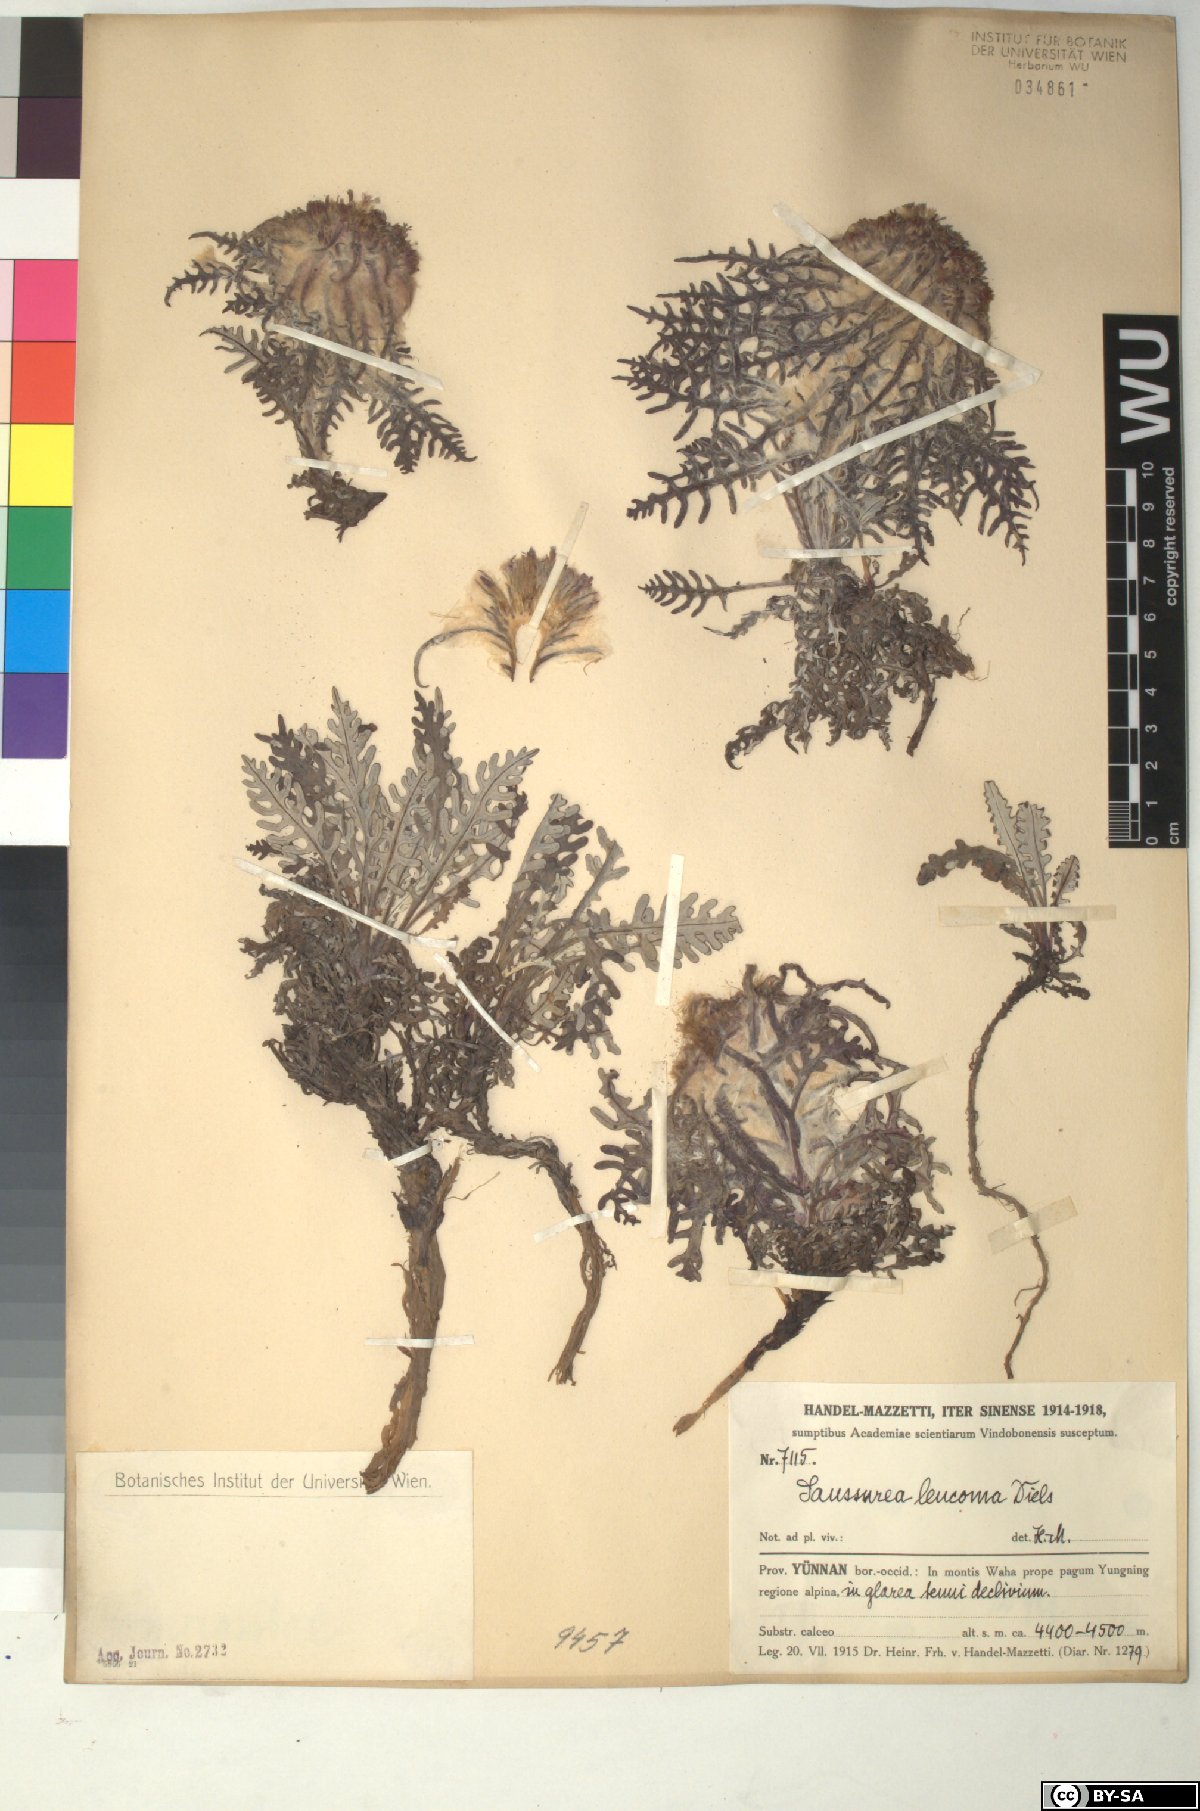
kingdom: Plantae
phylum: Tracheophyta
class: Magnoliopsida
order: Asterales
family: Asteraceae
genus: Saussurea
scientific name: Saussurea leucoma
